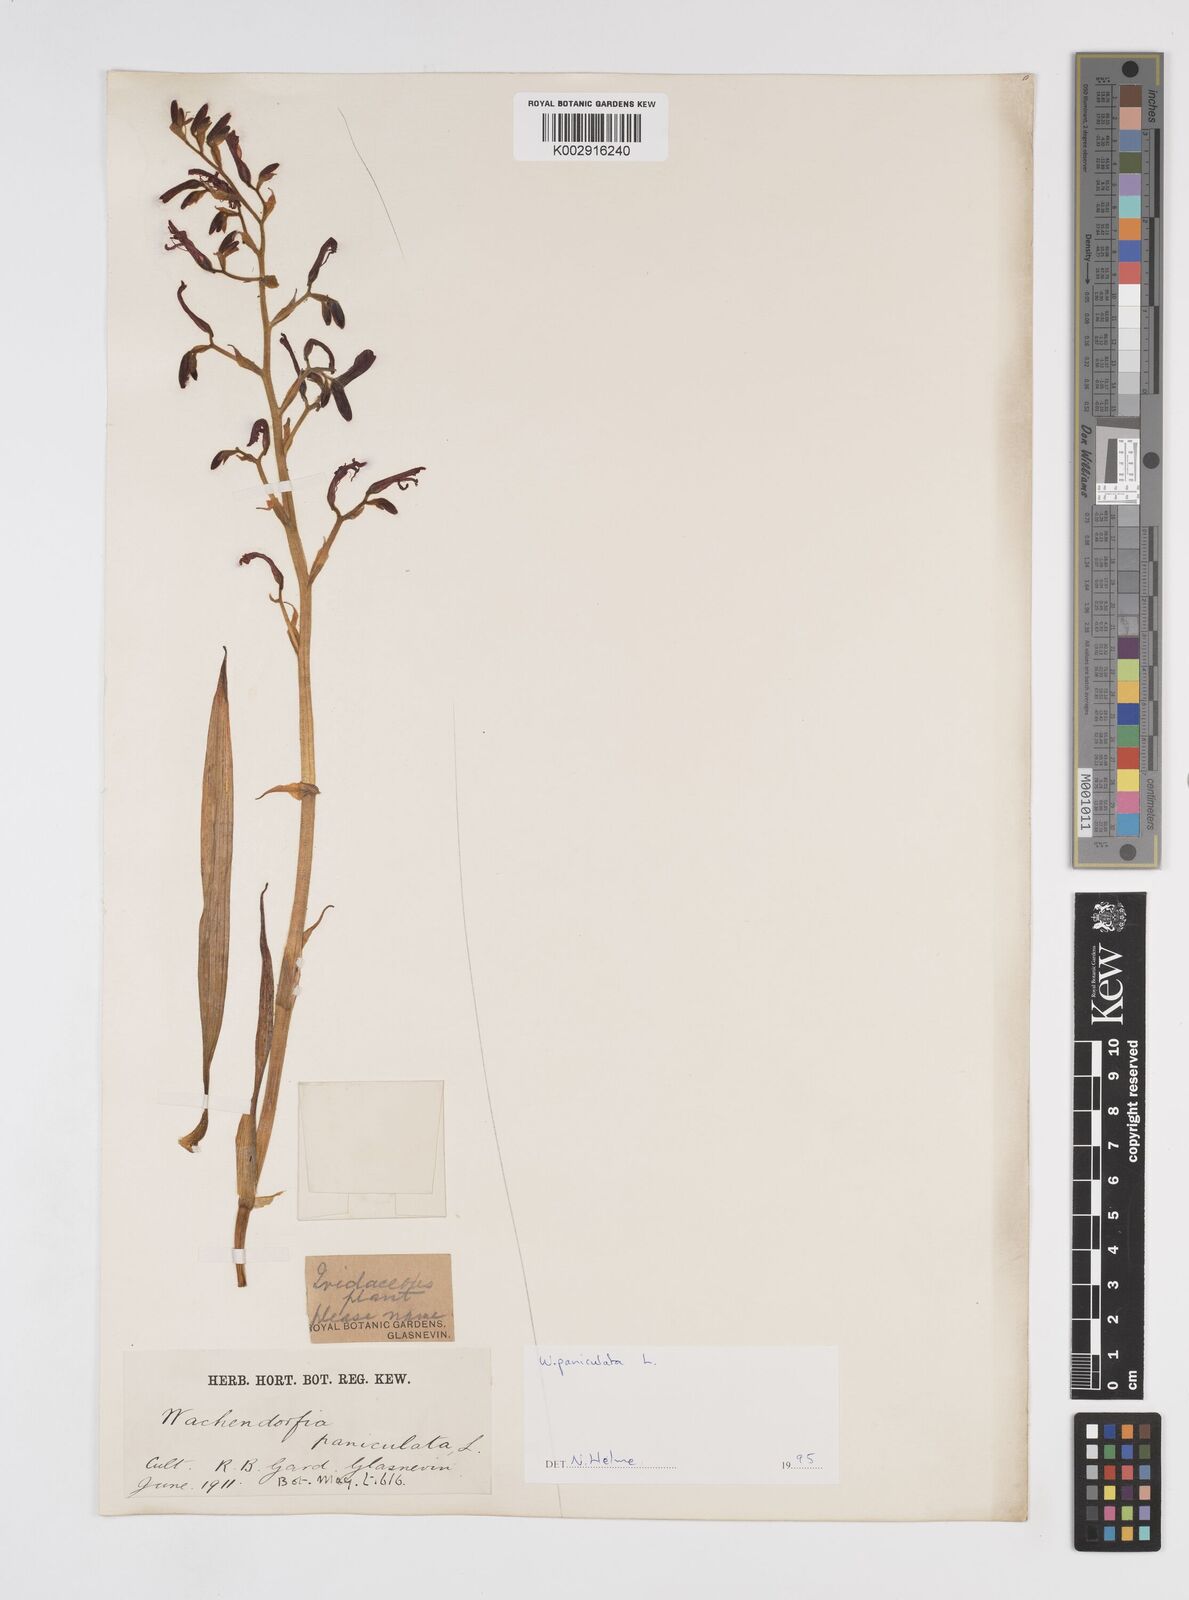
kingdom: Plantae
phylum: Tracheophyta
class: Liliopsida
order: Commelinales
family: Haemodoraceae
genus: Wachendorfia
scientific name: Wachendorfia paniculata
